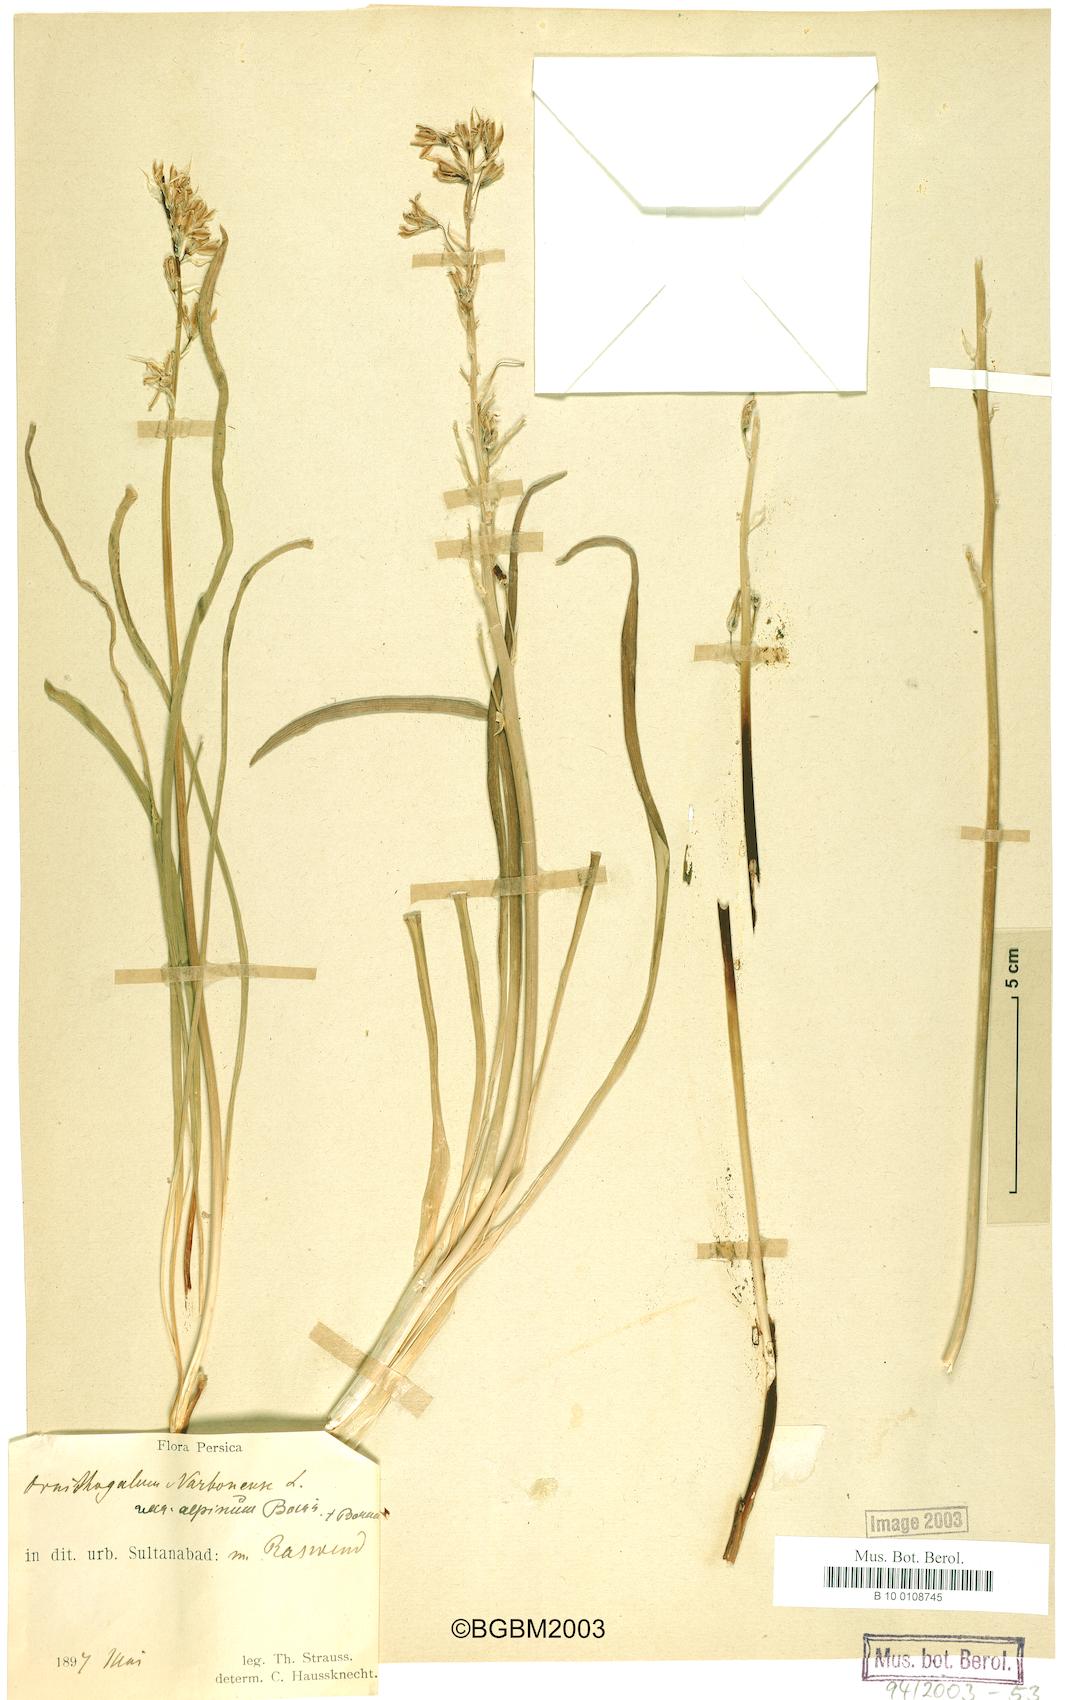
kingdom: Plantae
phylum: Tracheophyta
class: Liliopsida
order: Asparagales
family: Asparagaceae
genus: Ornithogalum
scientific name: Ornithogalum narbonense
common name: Bath-asparagus
